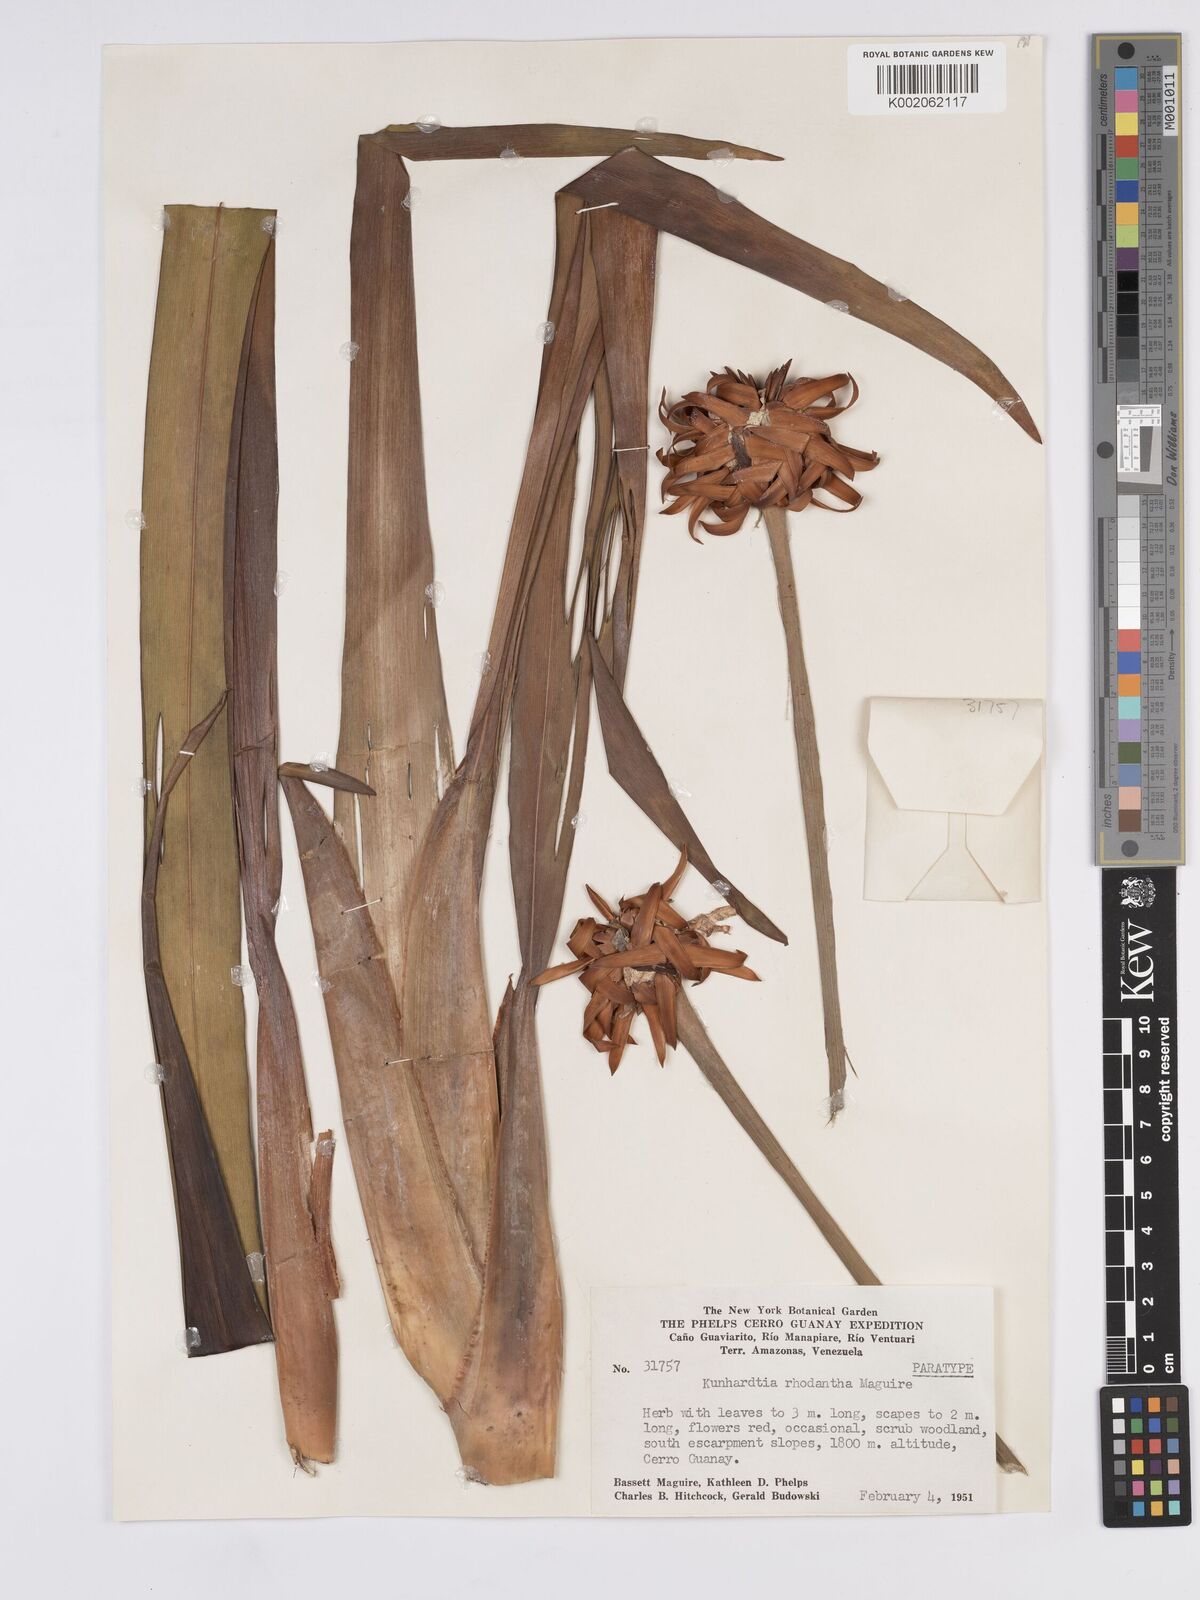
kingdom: Plantae
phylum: Tracheophyta
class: Liliopsida
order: Poales
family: Rapateaceae
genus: Kunhardtia
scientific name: Kunhardtia rhodantha
